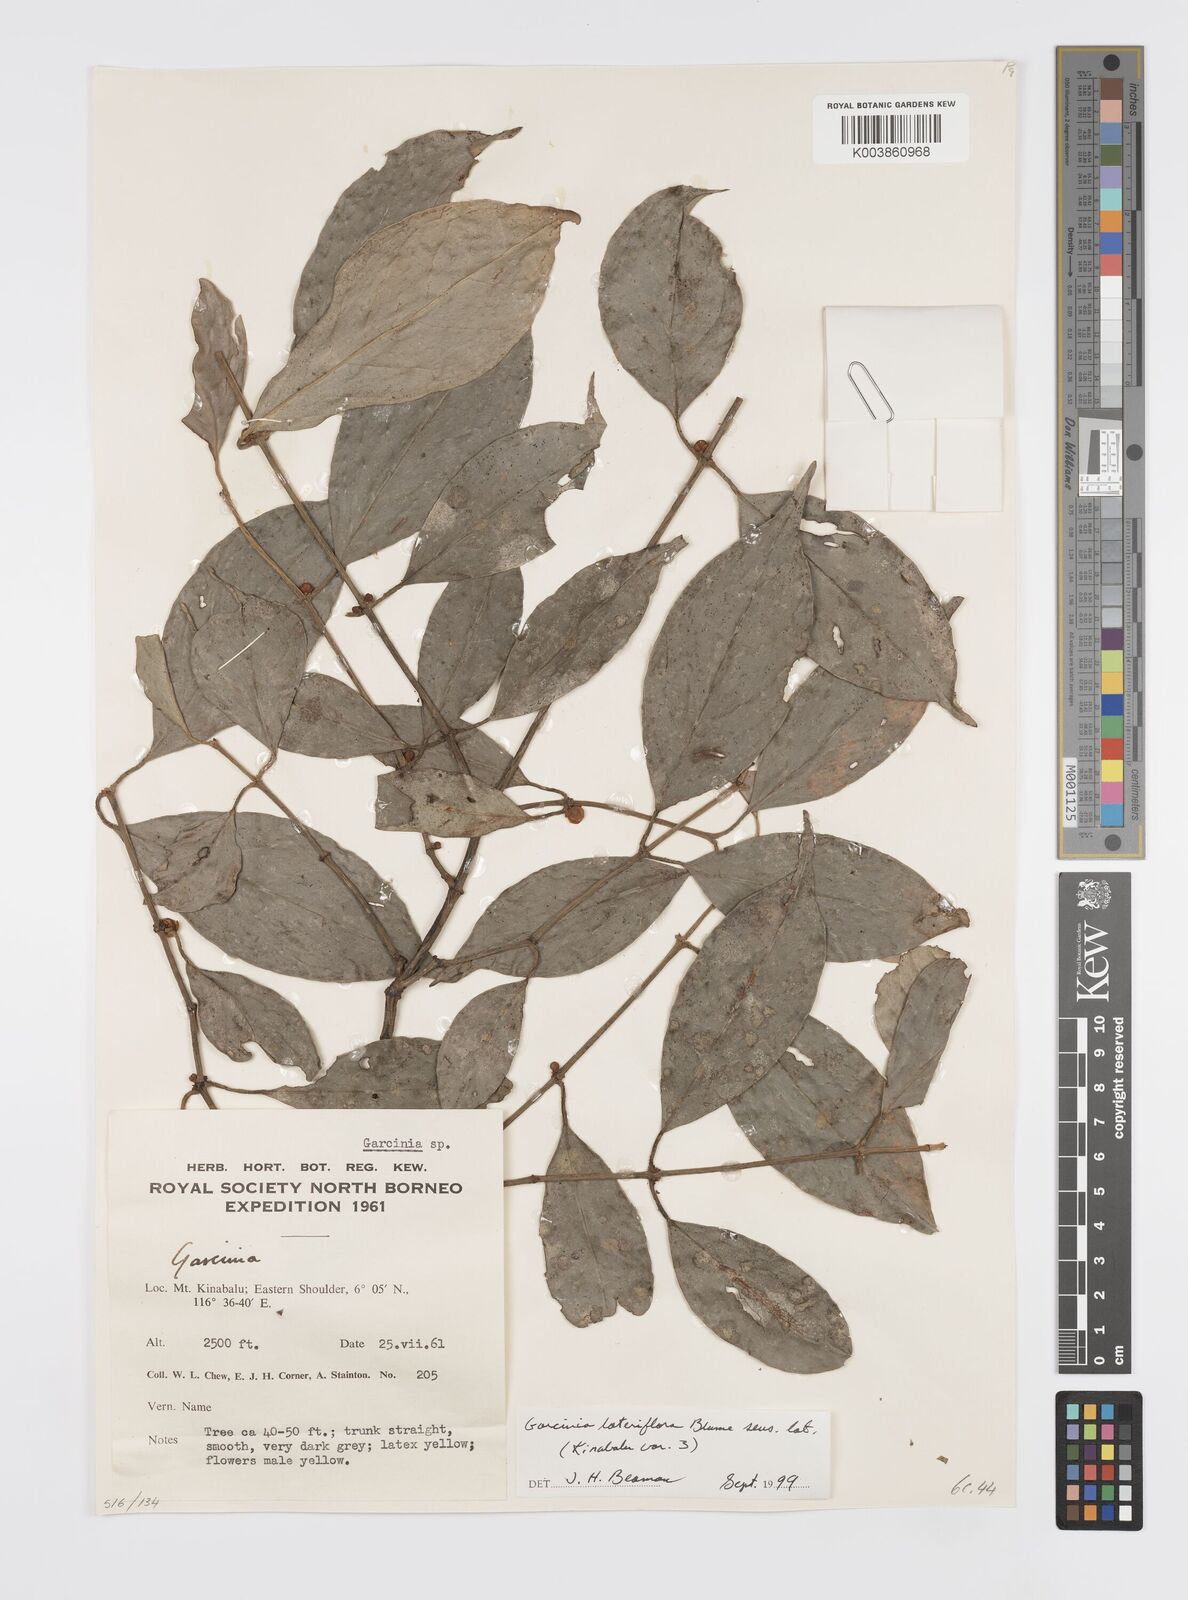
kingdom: Plantae
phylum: Tracheophyta
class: Magnoliopsida
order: Malpighiales
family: Clusiaceae
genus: Garcinia
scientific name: Garcinia lateriflora
